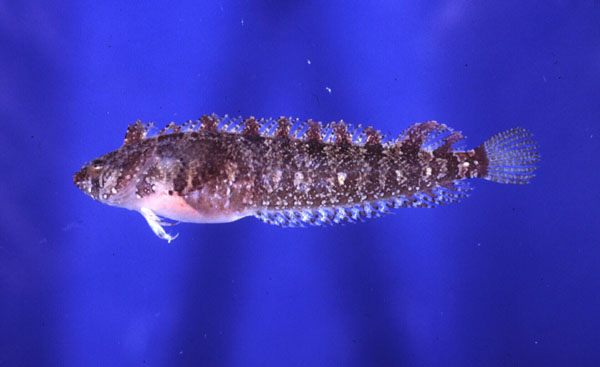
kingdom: Animalia
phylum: Chordata
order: Perciformes
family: Clinidae
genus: Blennioclinus
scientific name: Blennioclinus stella
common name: Silverbubble klipfish
